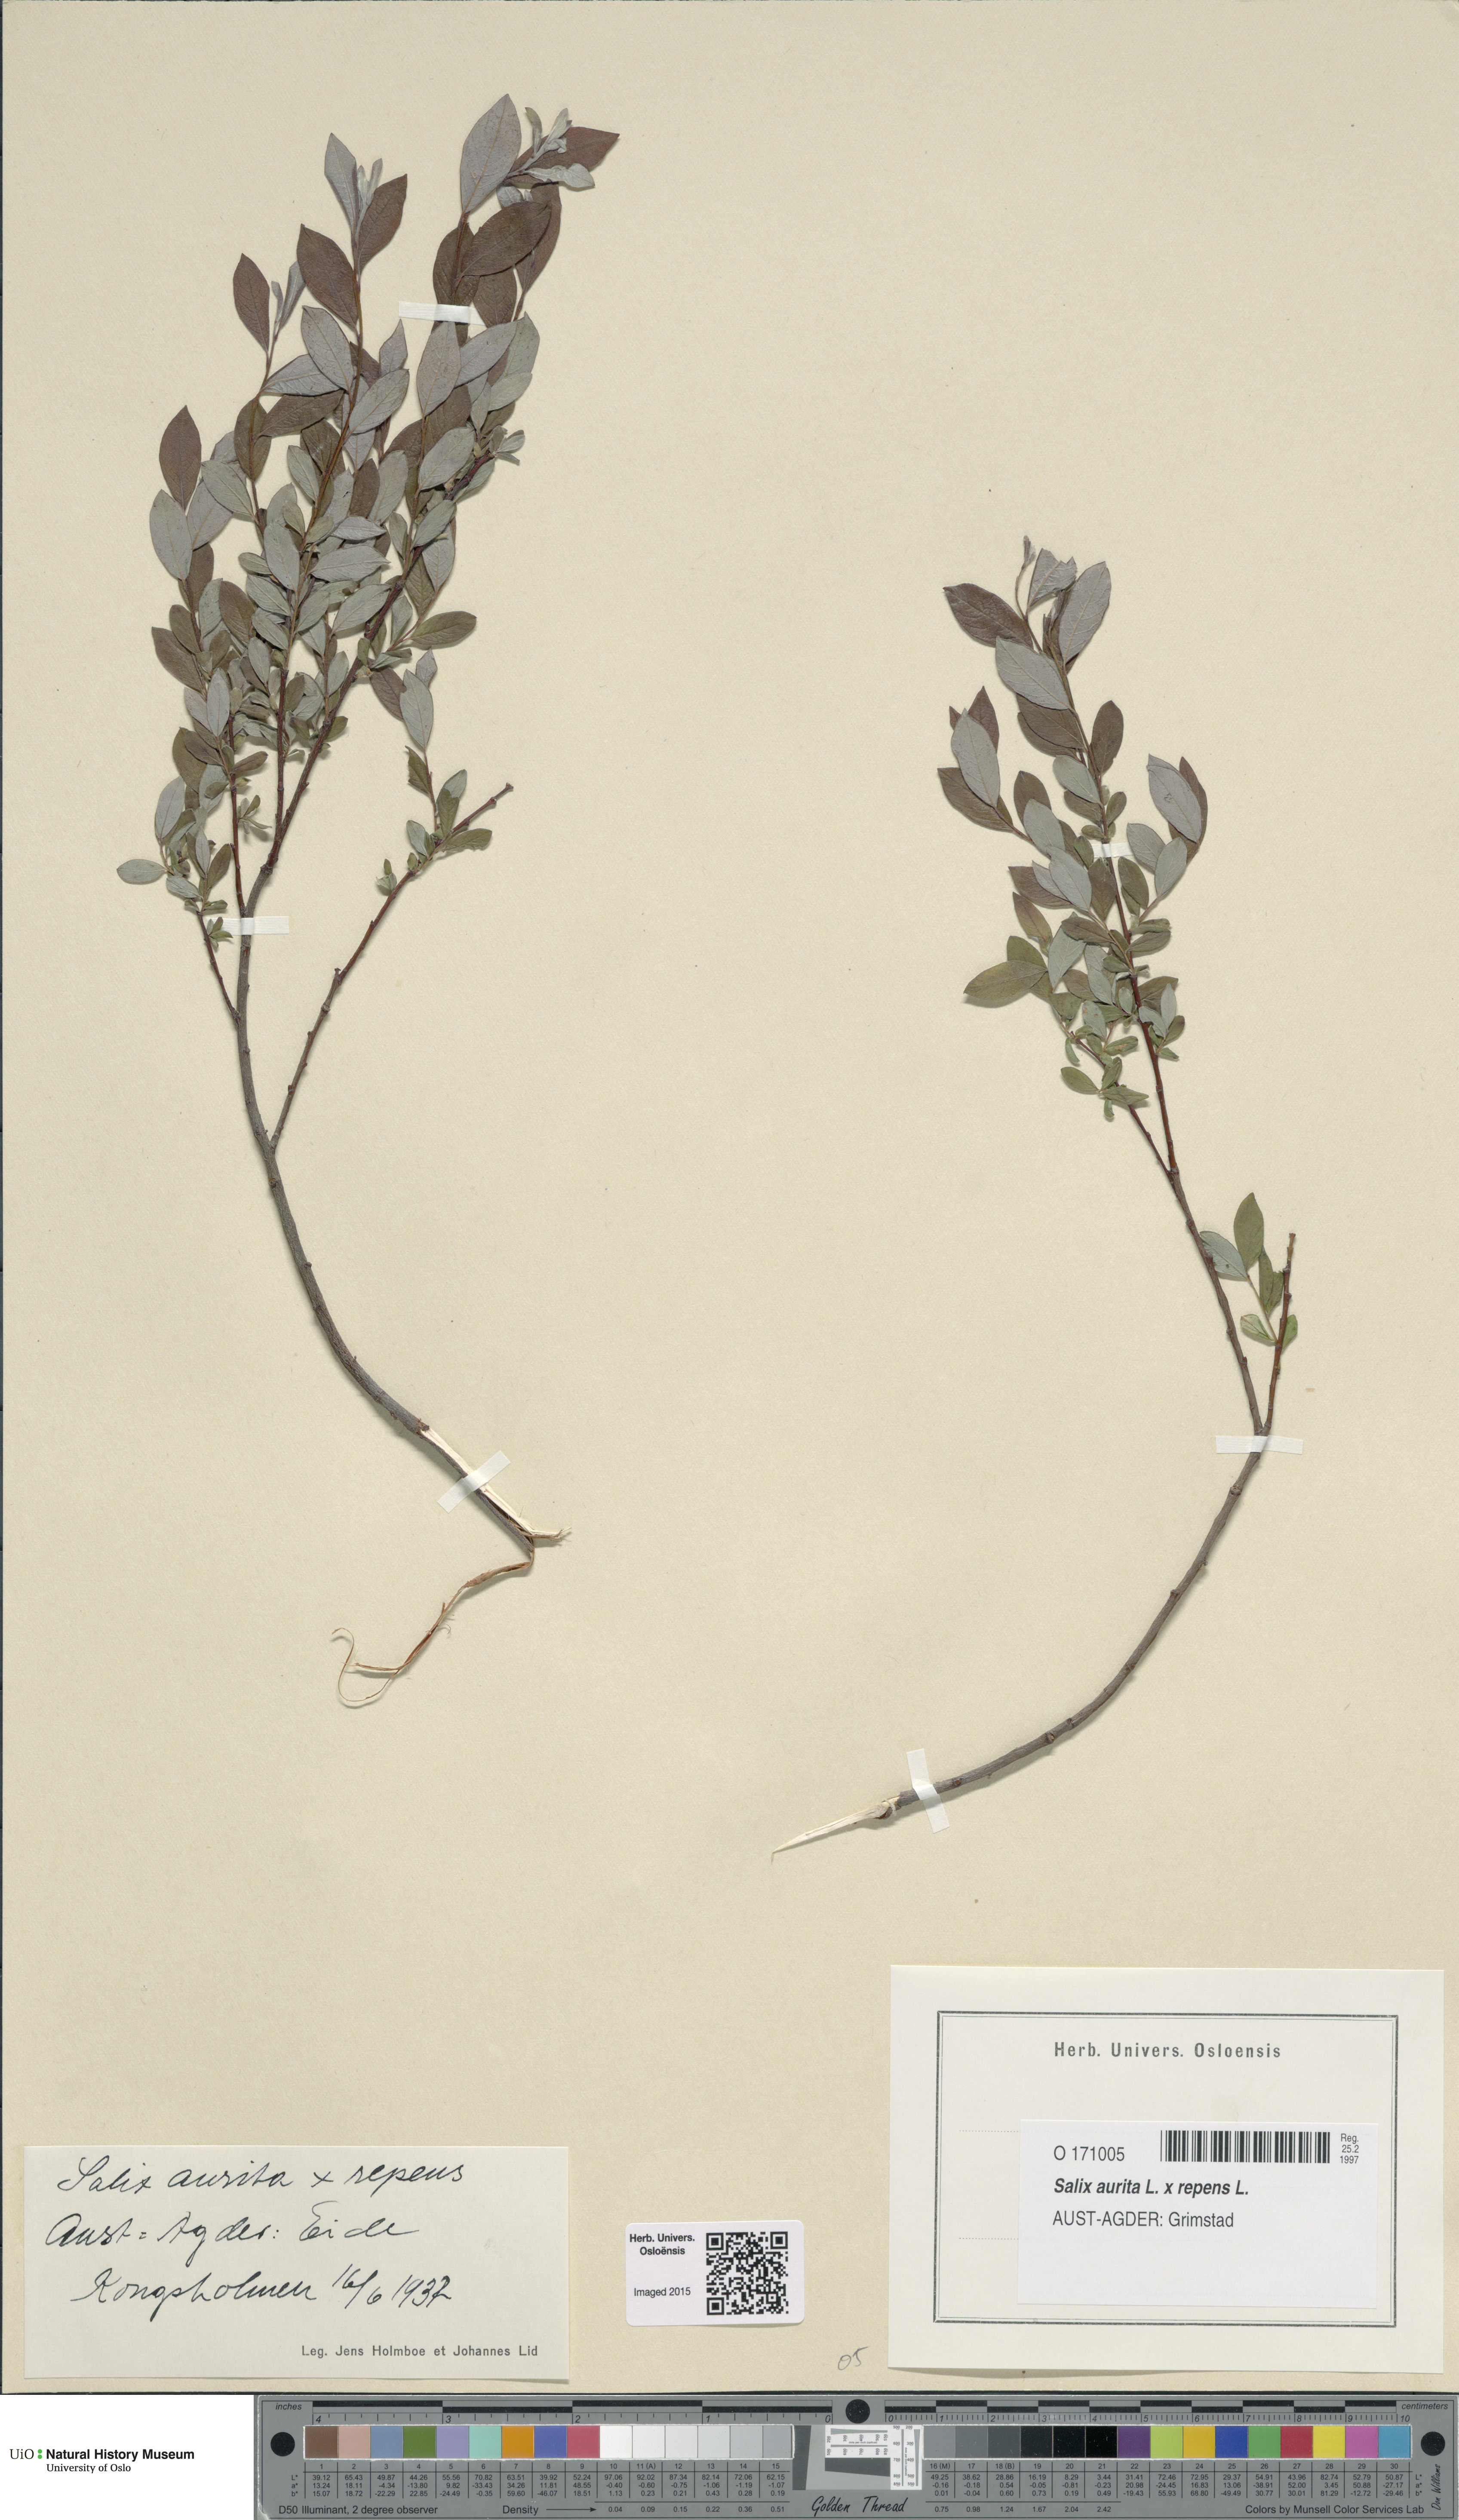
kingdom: Plantae
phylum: Tracheophyta
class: Magnoliopsida
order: Malpighiales
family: Salicaceae
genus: Salix
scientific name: Salix
